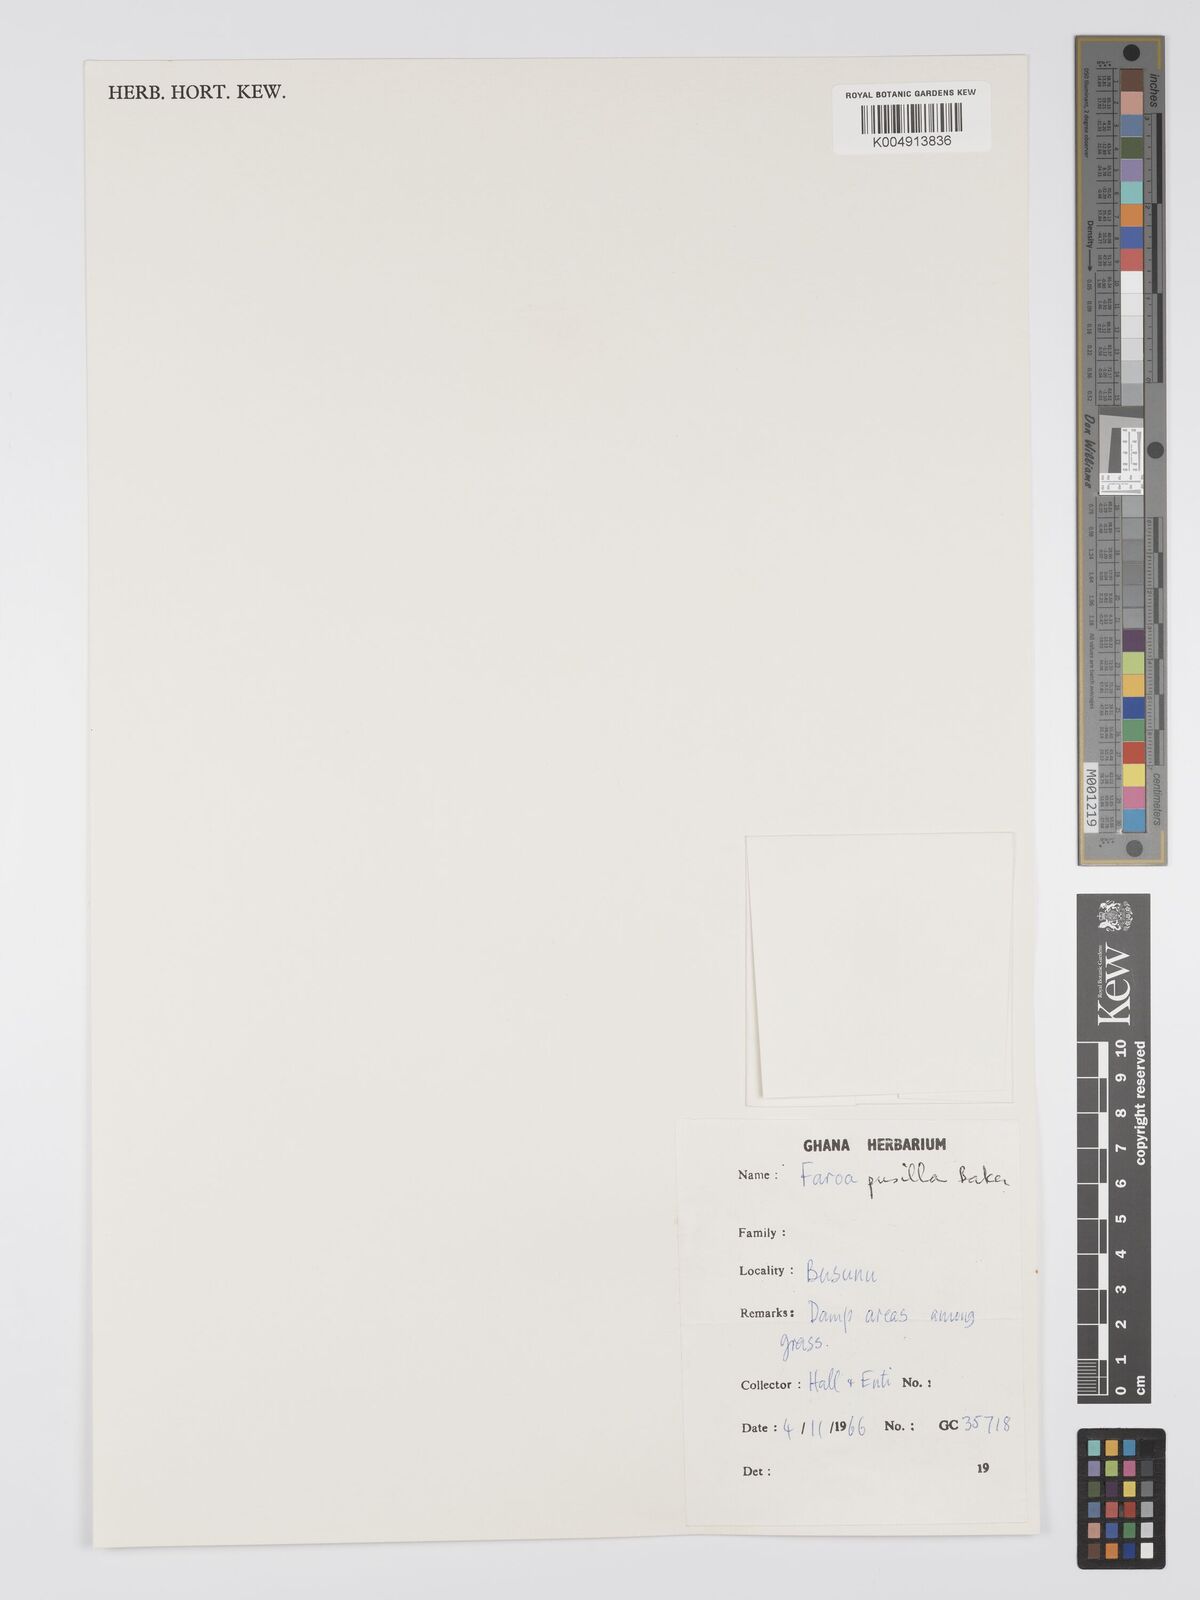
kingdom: Plantae
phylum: Tracheophyta
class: Magnoliopsida
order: Gentianales
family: Gentianaceae
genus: Faroa
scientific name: Faroa pusilla
